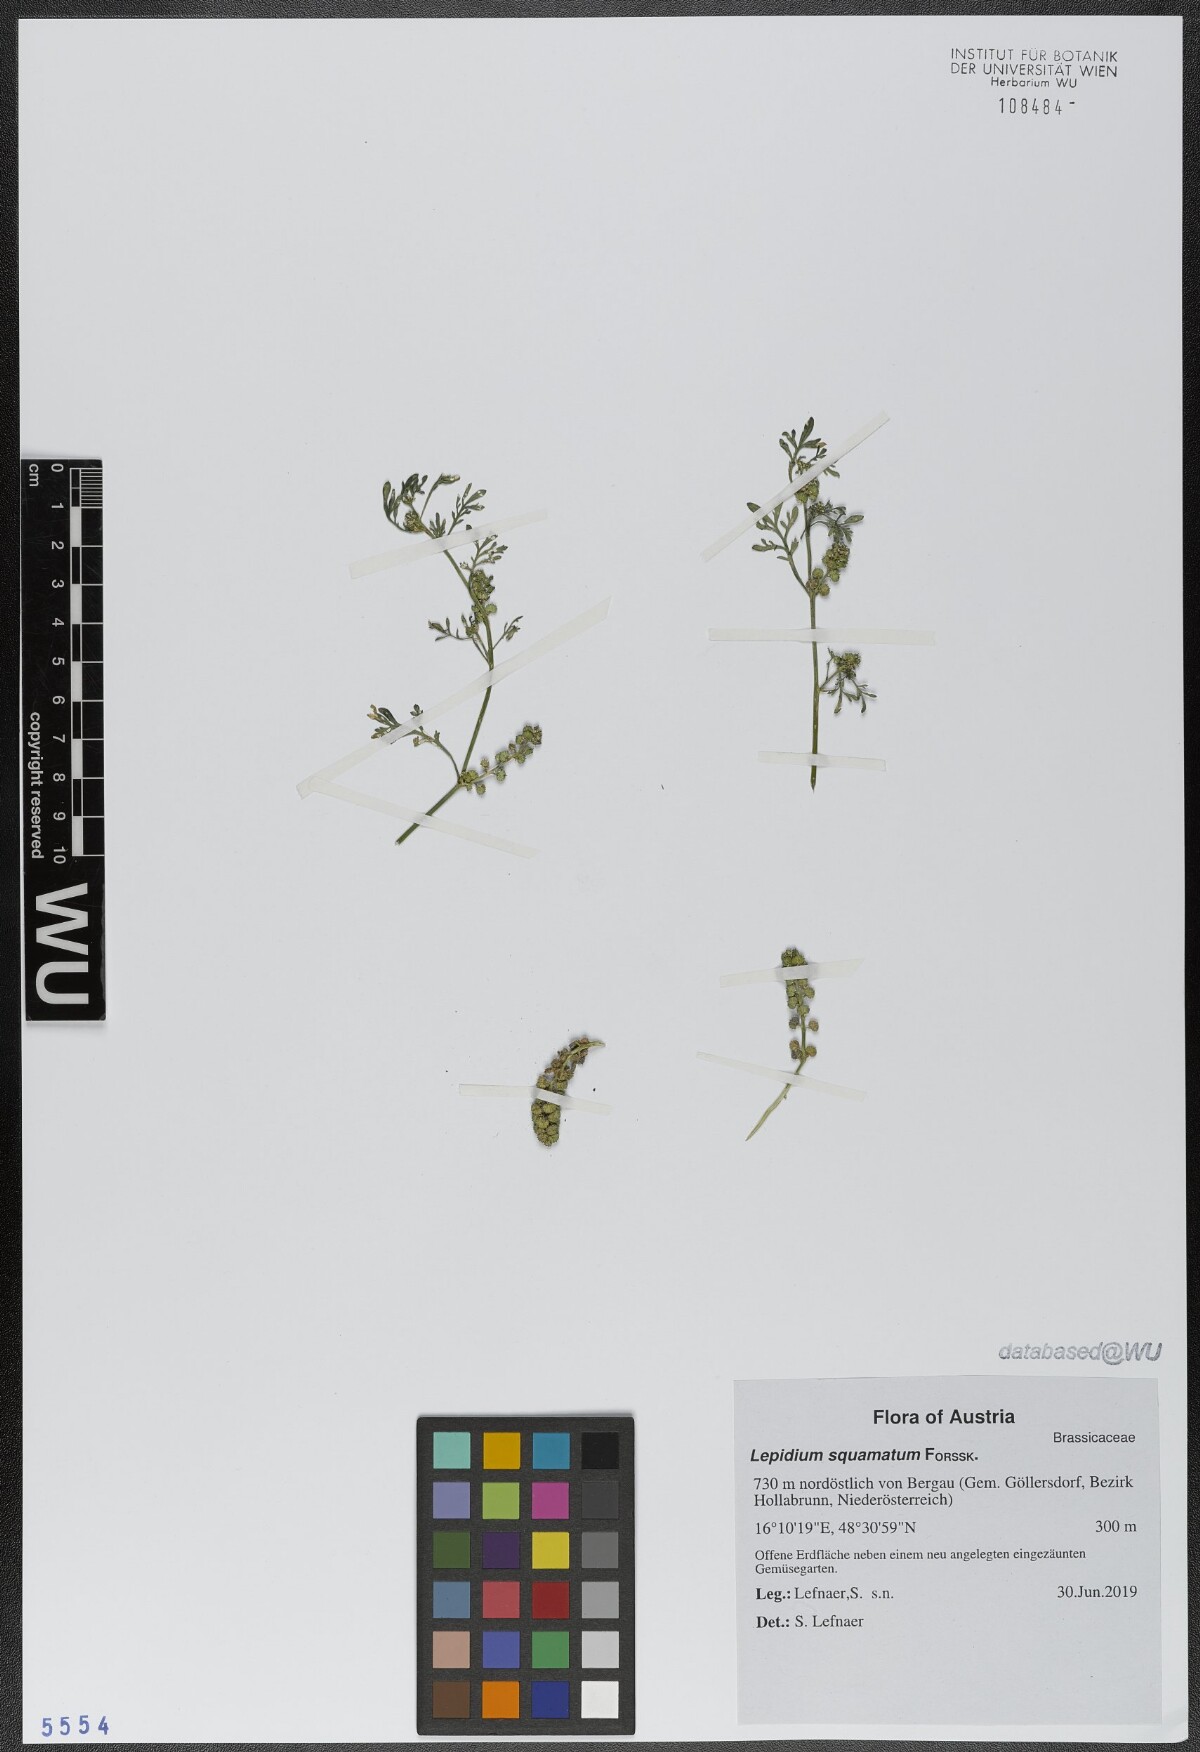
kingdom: Plantae
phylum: Tracheophyta
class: Magnoliopsida
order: Brassicales
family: Brassicaceae
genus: Lepidium
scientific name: Lepidium coronopus
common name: Greater swinecress
